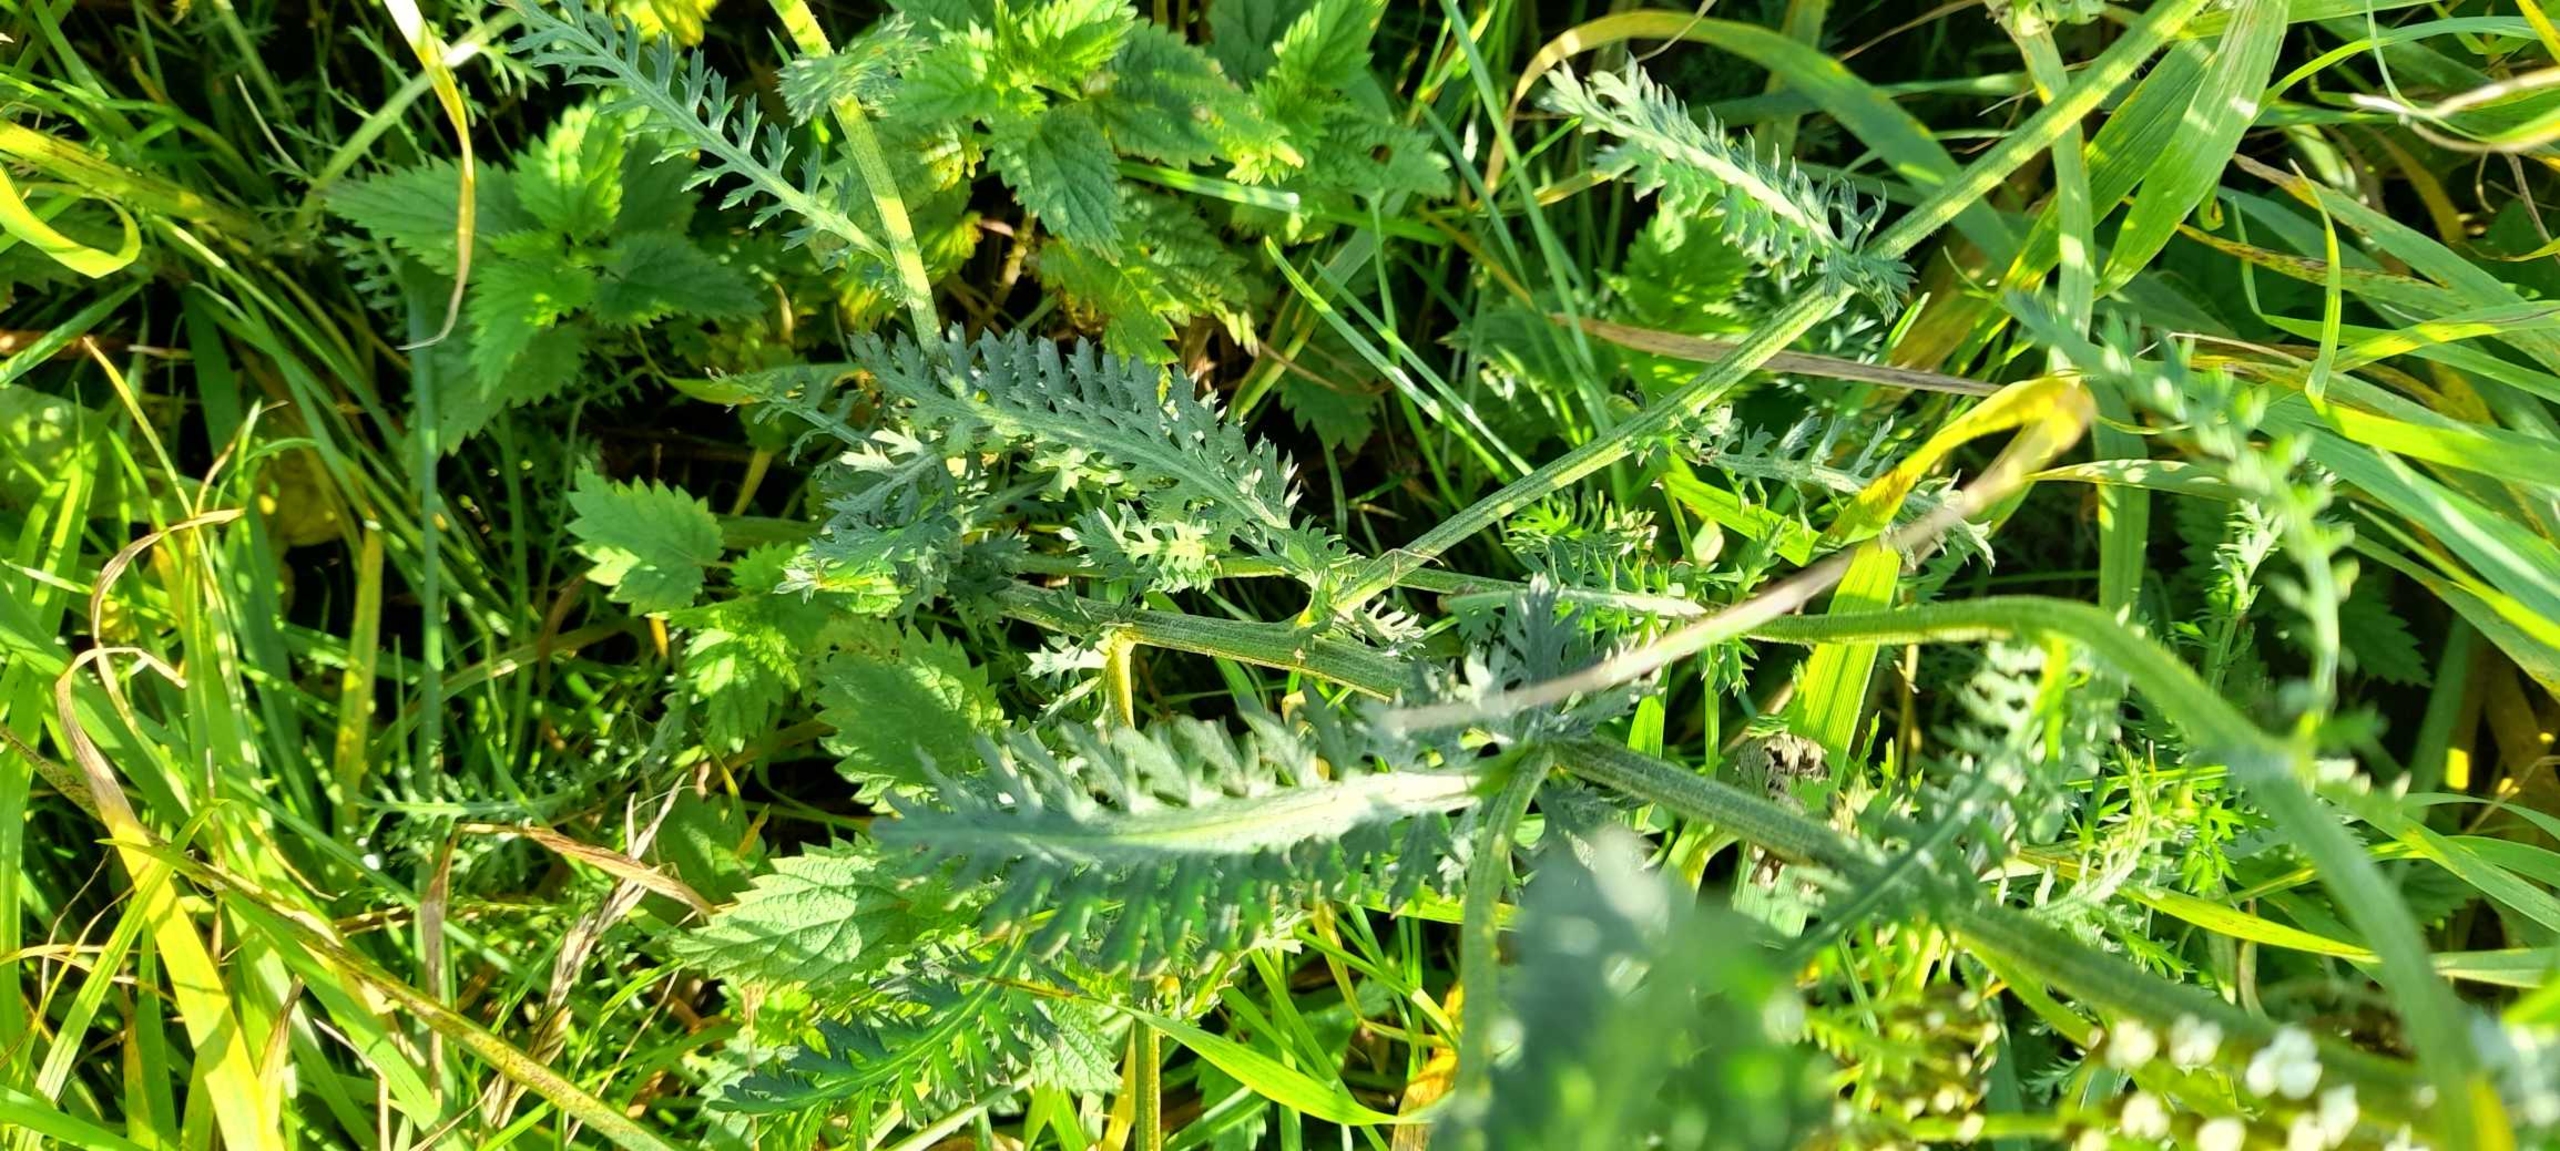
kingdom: Plantae
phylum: Tracheophyta
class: Magnoliopsida
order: Asterales
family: Asteraceae
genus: Achillea
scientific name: Achillea millefolium
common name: Almindelig røllike
